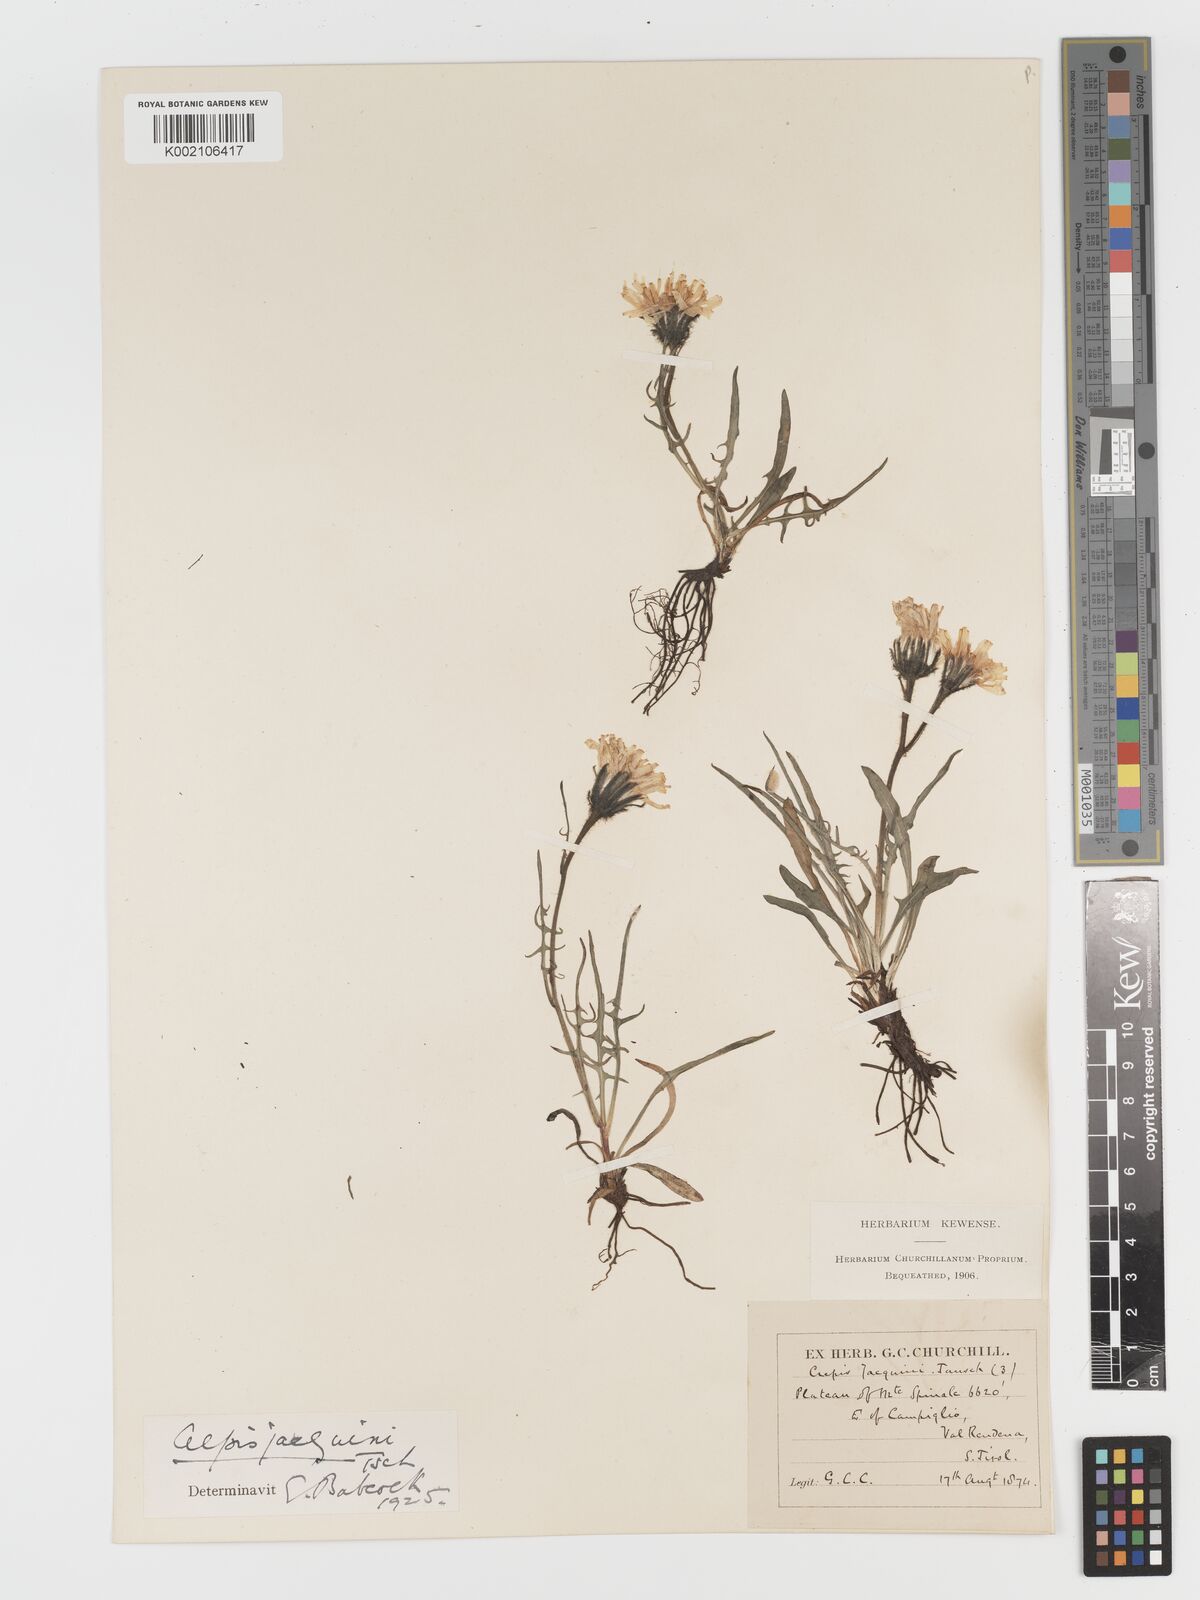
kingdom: Plantae
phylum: Tracheophyta
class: Magnoliopsida
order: Asterales
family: Asteraceae
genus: Crepis
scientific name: Crepis jacquinii
